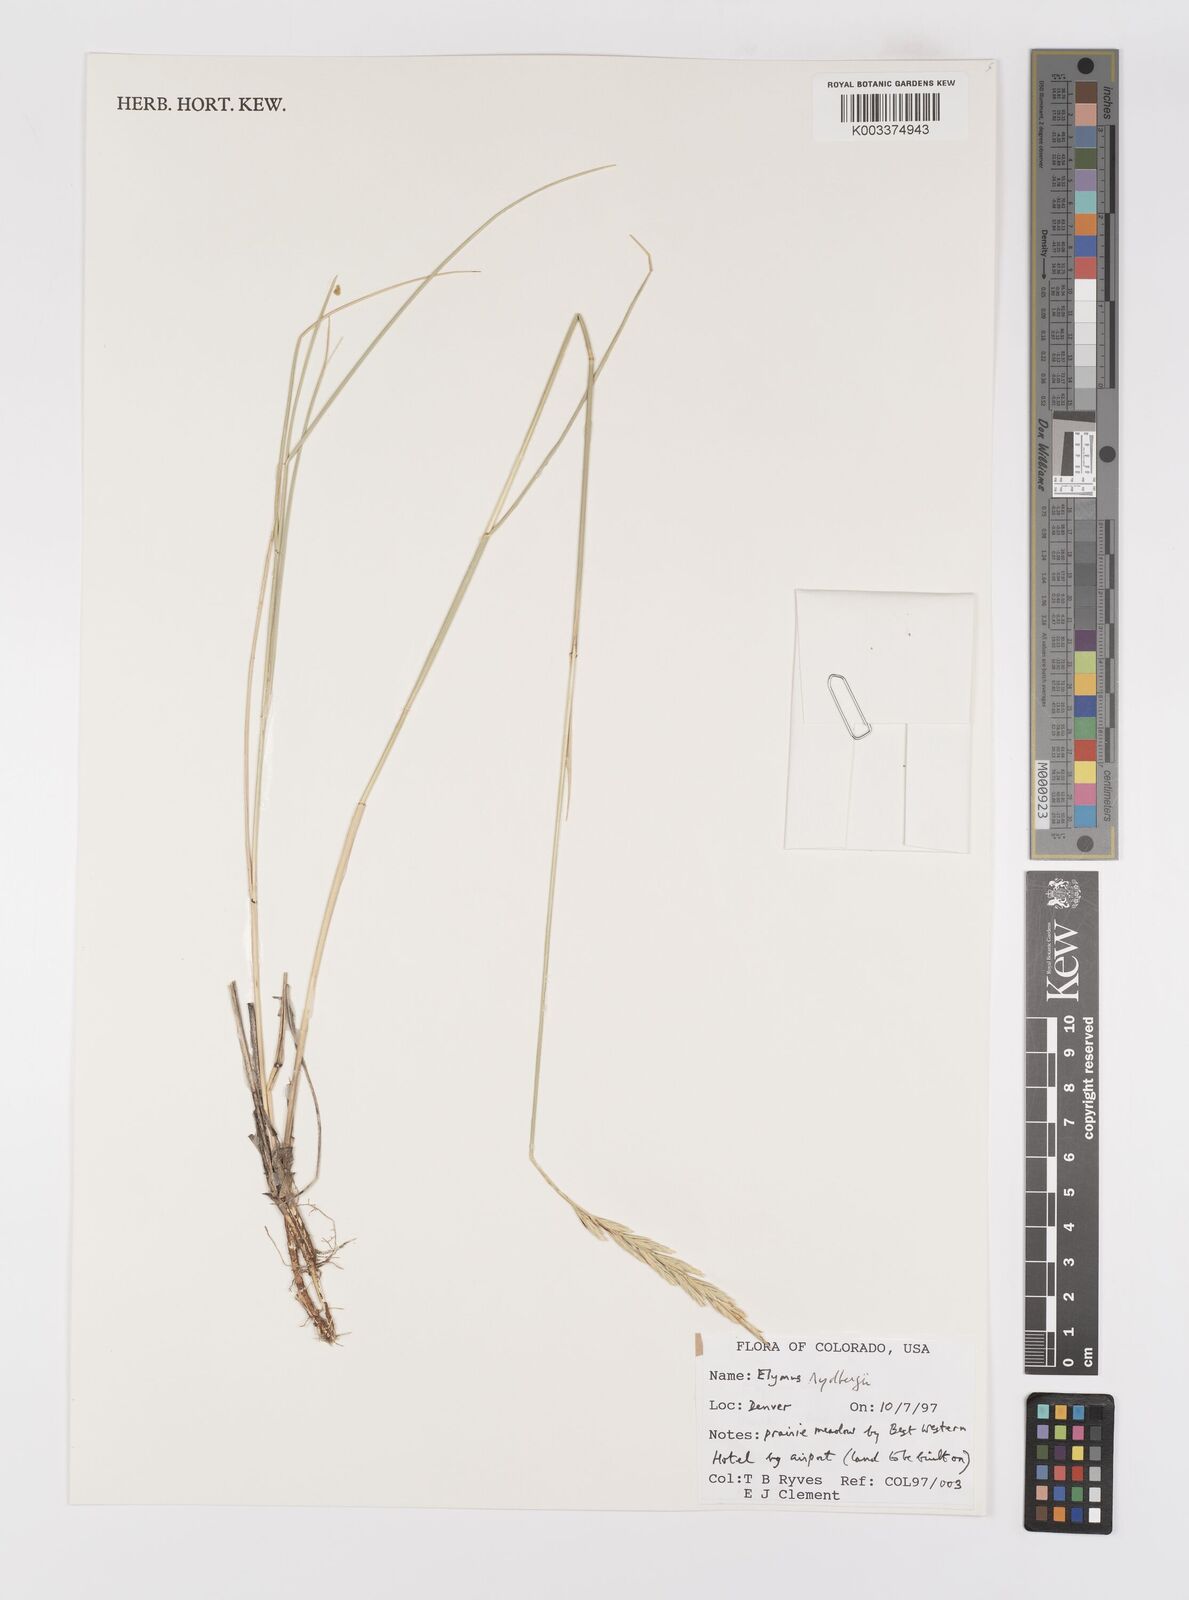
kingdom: Plantae
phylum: Tracheophyta
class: Liliopsida
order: Poales
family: Poaceae
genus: Elymus
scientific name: Elymus lanceolatus
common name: Thick-spike wheatgrass
